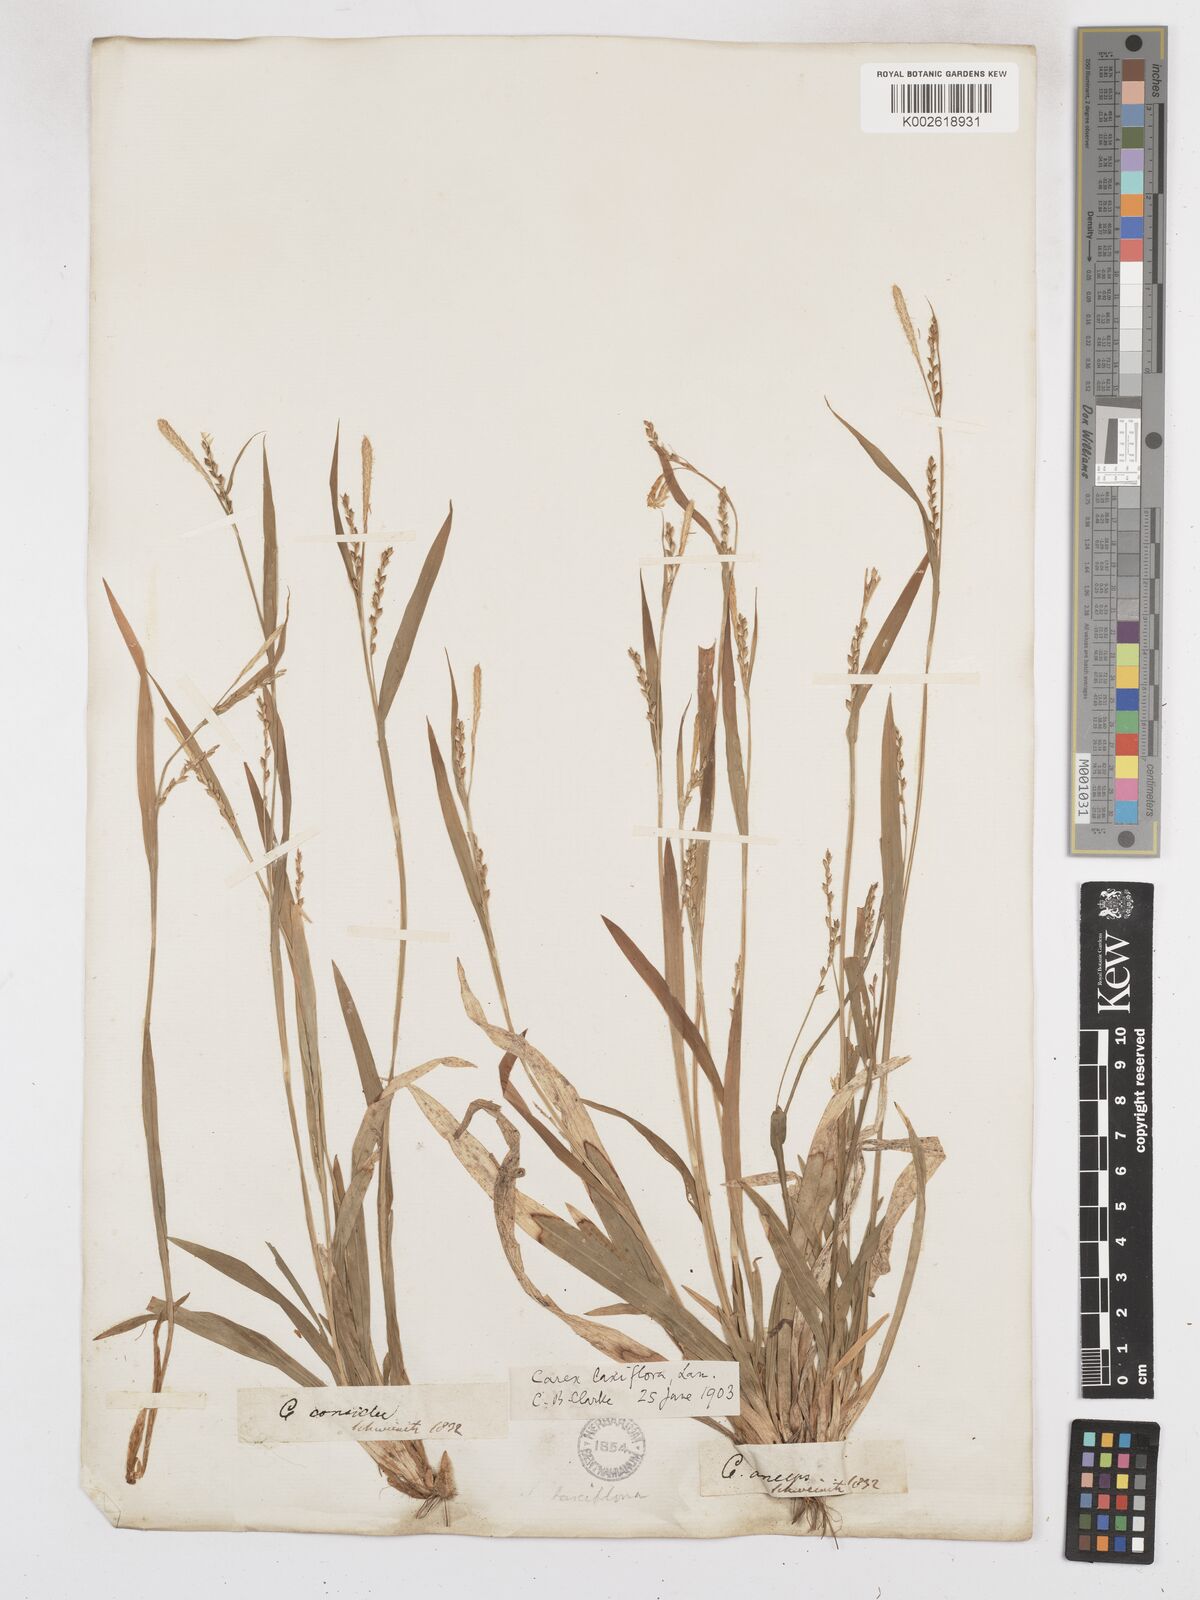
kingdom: Plantae
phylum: Tracheophyta
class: Liliopsida
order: Poales
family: Cyperaceae
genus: Carex
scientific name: Carex laxiflora
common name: Beech wood sedge
